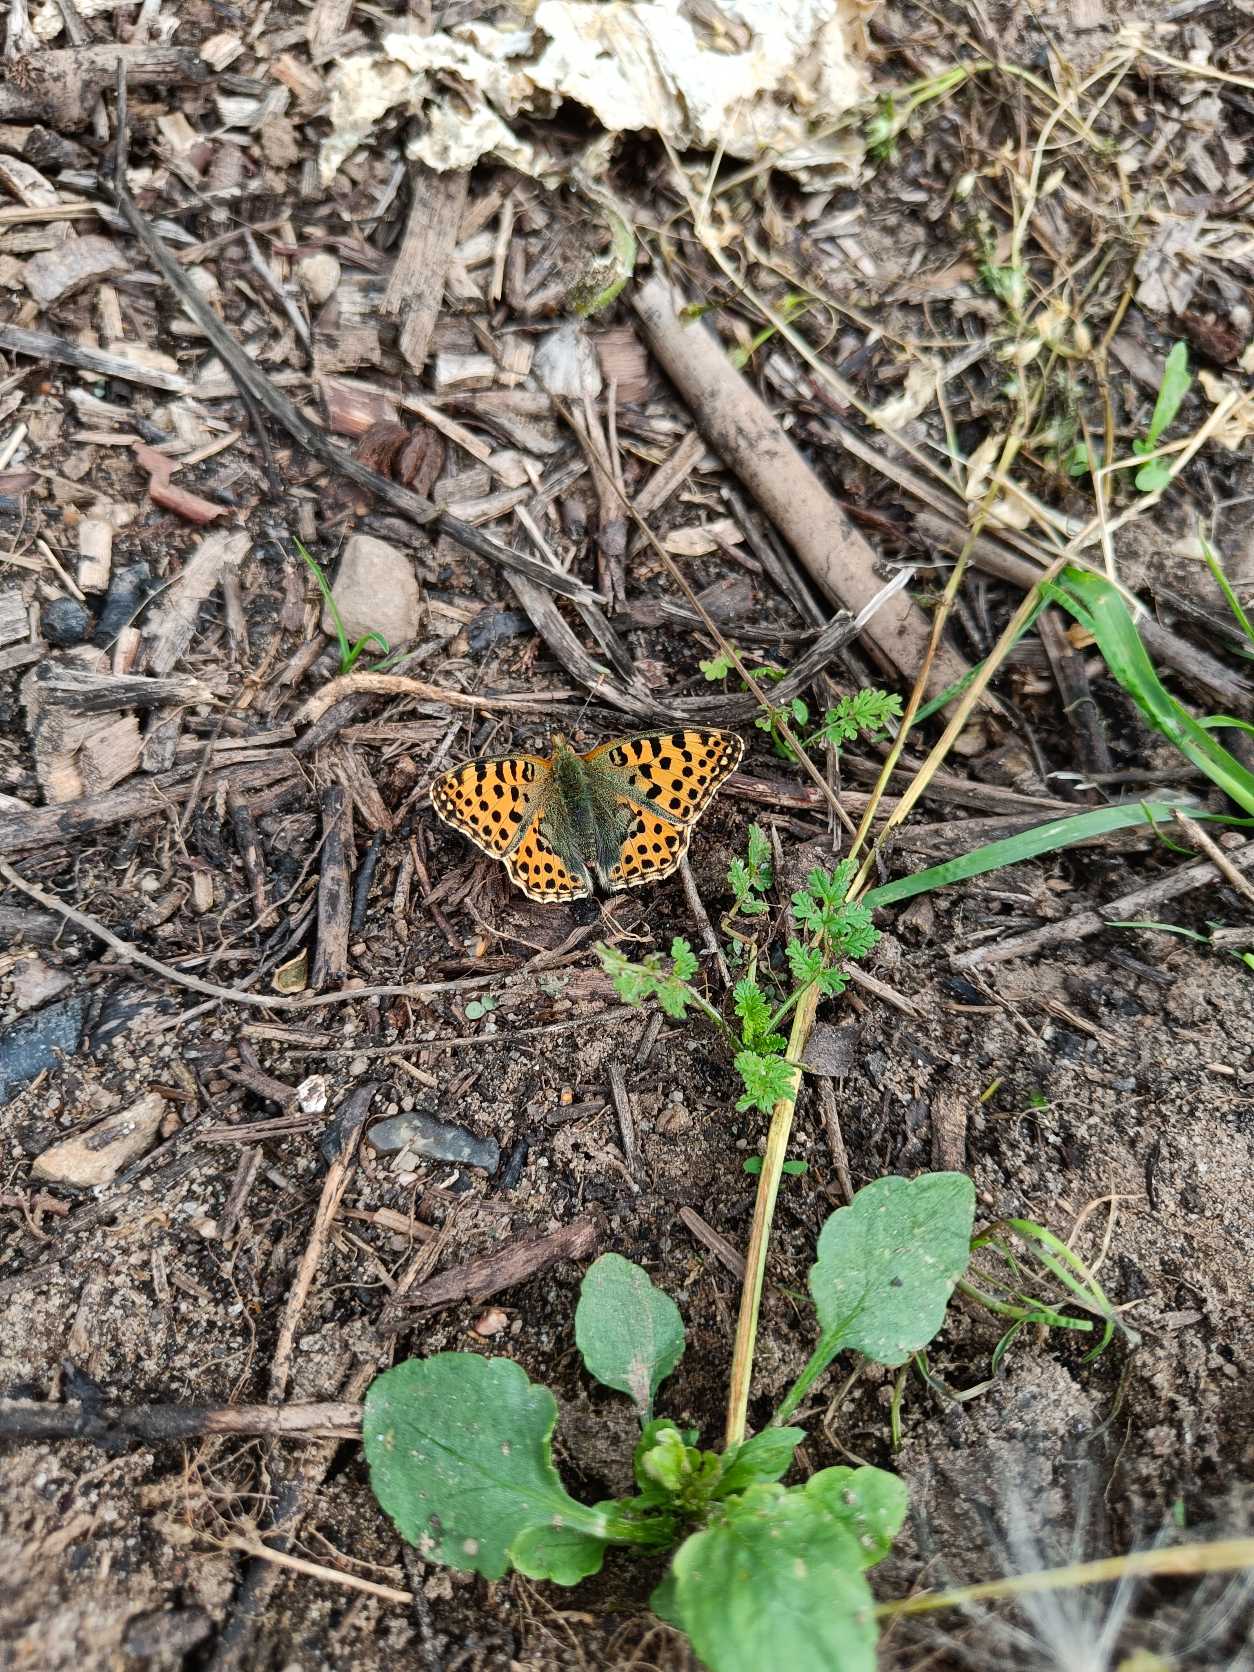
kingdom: Animalia
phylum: Arthropoda
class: Insecta
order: Lepidoptera
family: Nymphalidae
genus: Issoria
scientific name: Issoria lathonia
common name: Storplettet perlemorsommerfugl
